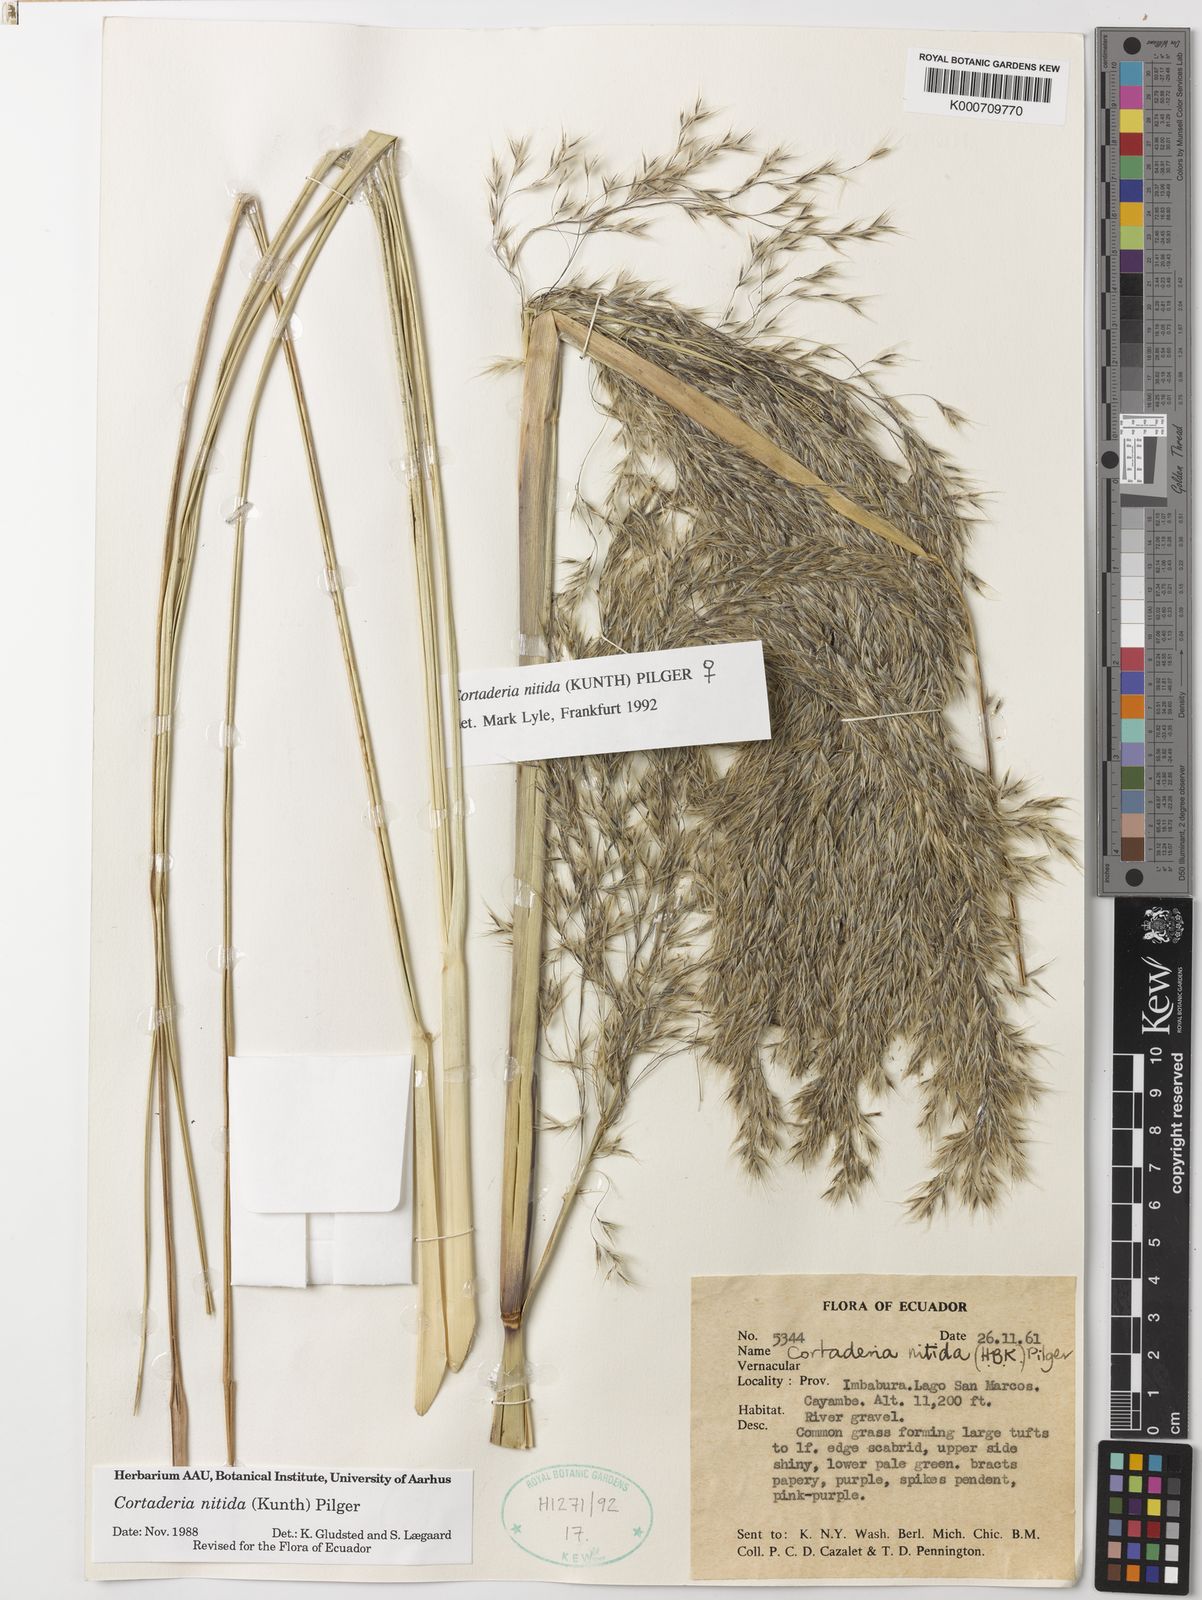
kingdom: Plantae
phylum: Tracheophyta
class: Liliopsida
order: Poales
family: Poaceae
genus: Cortaderia
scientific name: Cortaderia nitida
